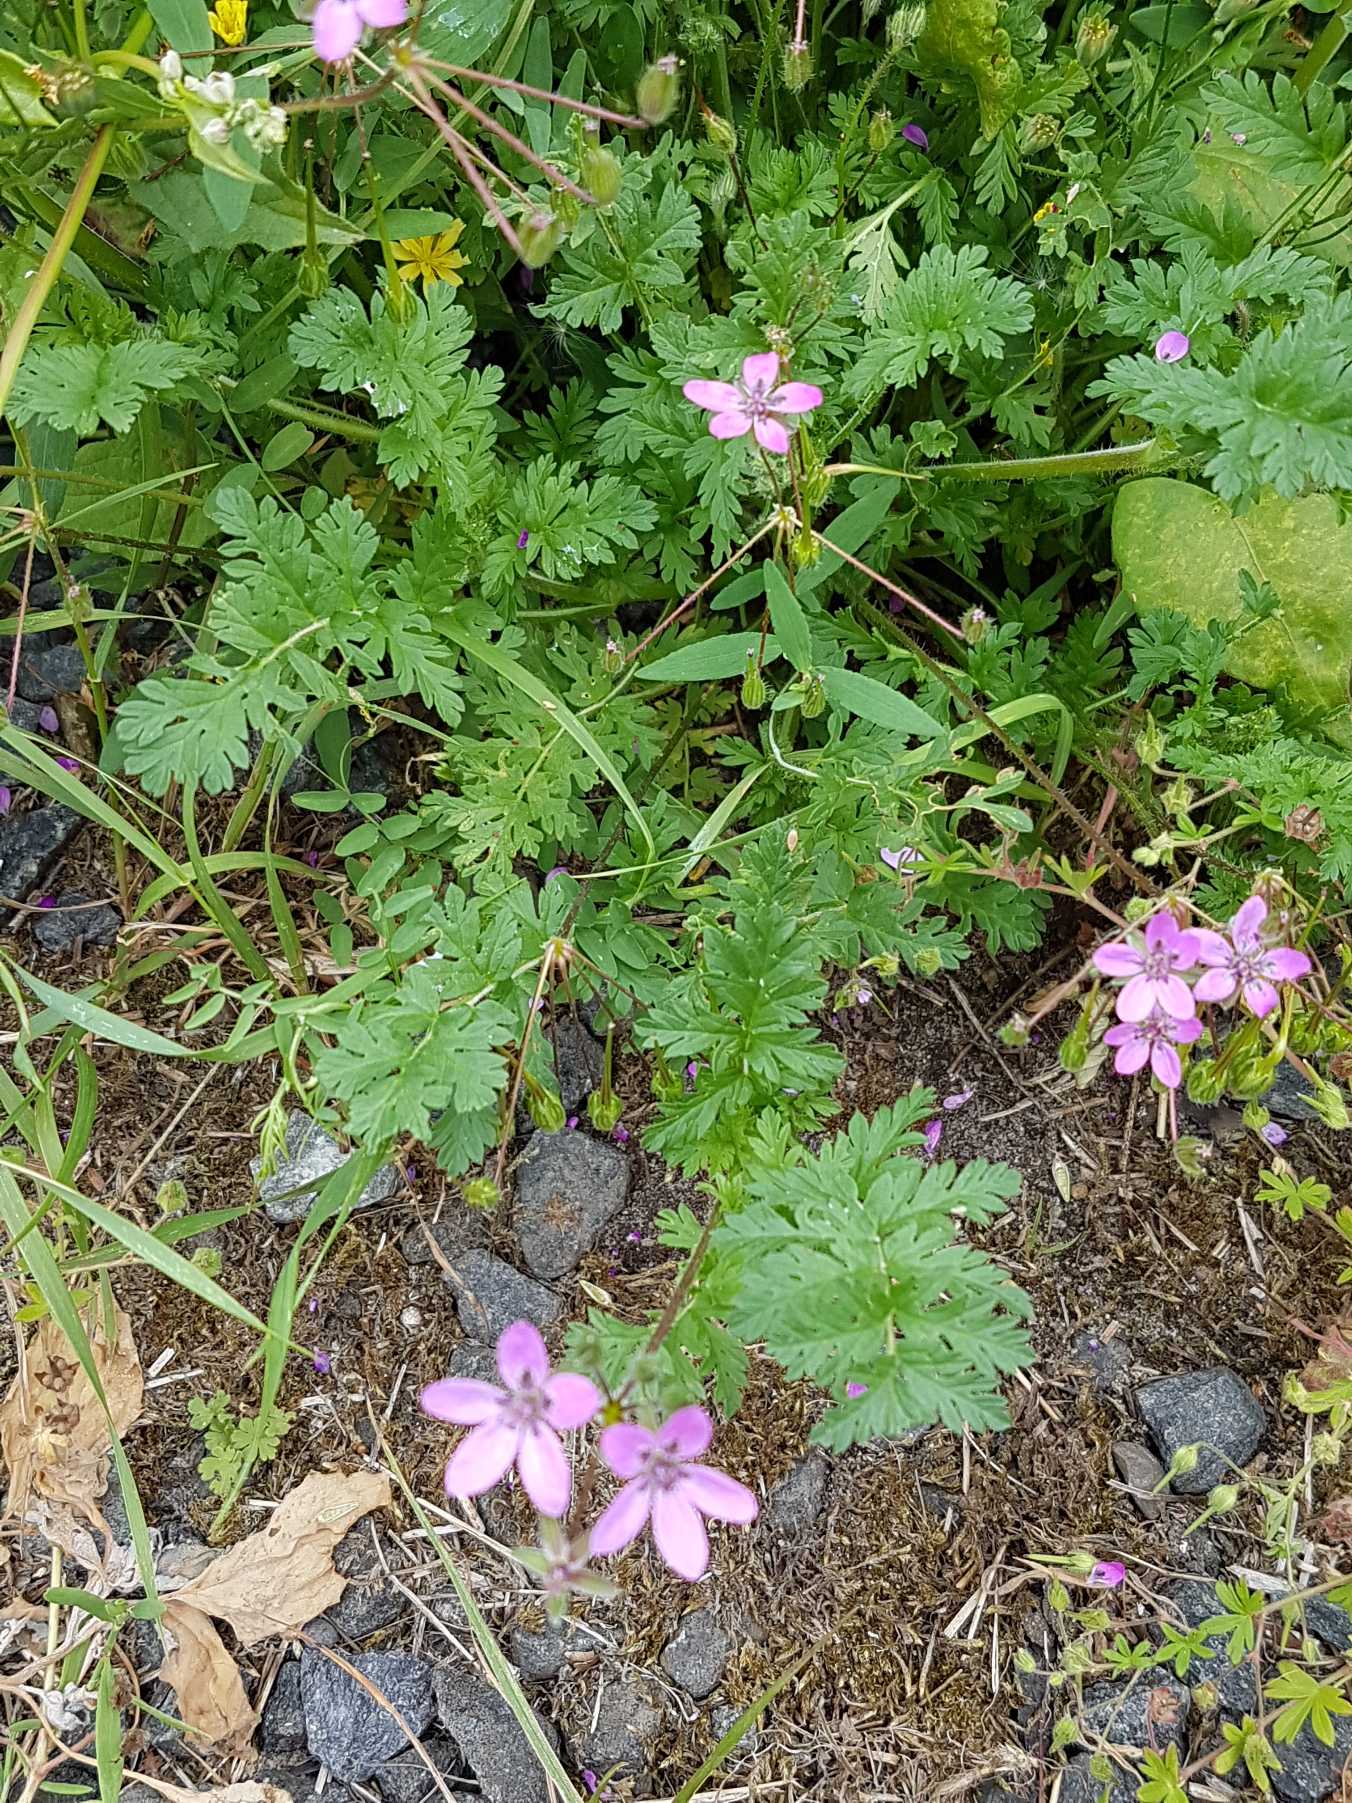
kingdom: Plantae
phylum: Tracheophyta
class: Magnoliopsida
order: Geraniales
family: Geraniaceae
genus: Erodium
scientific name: Erodium cicutarium
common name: Hejrenæb
